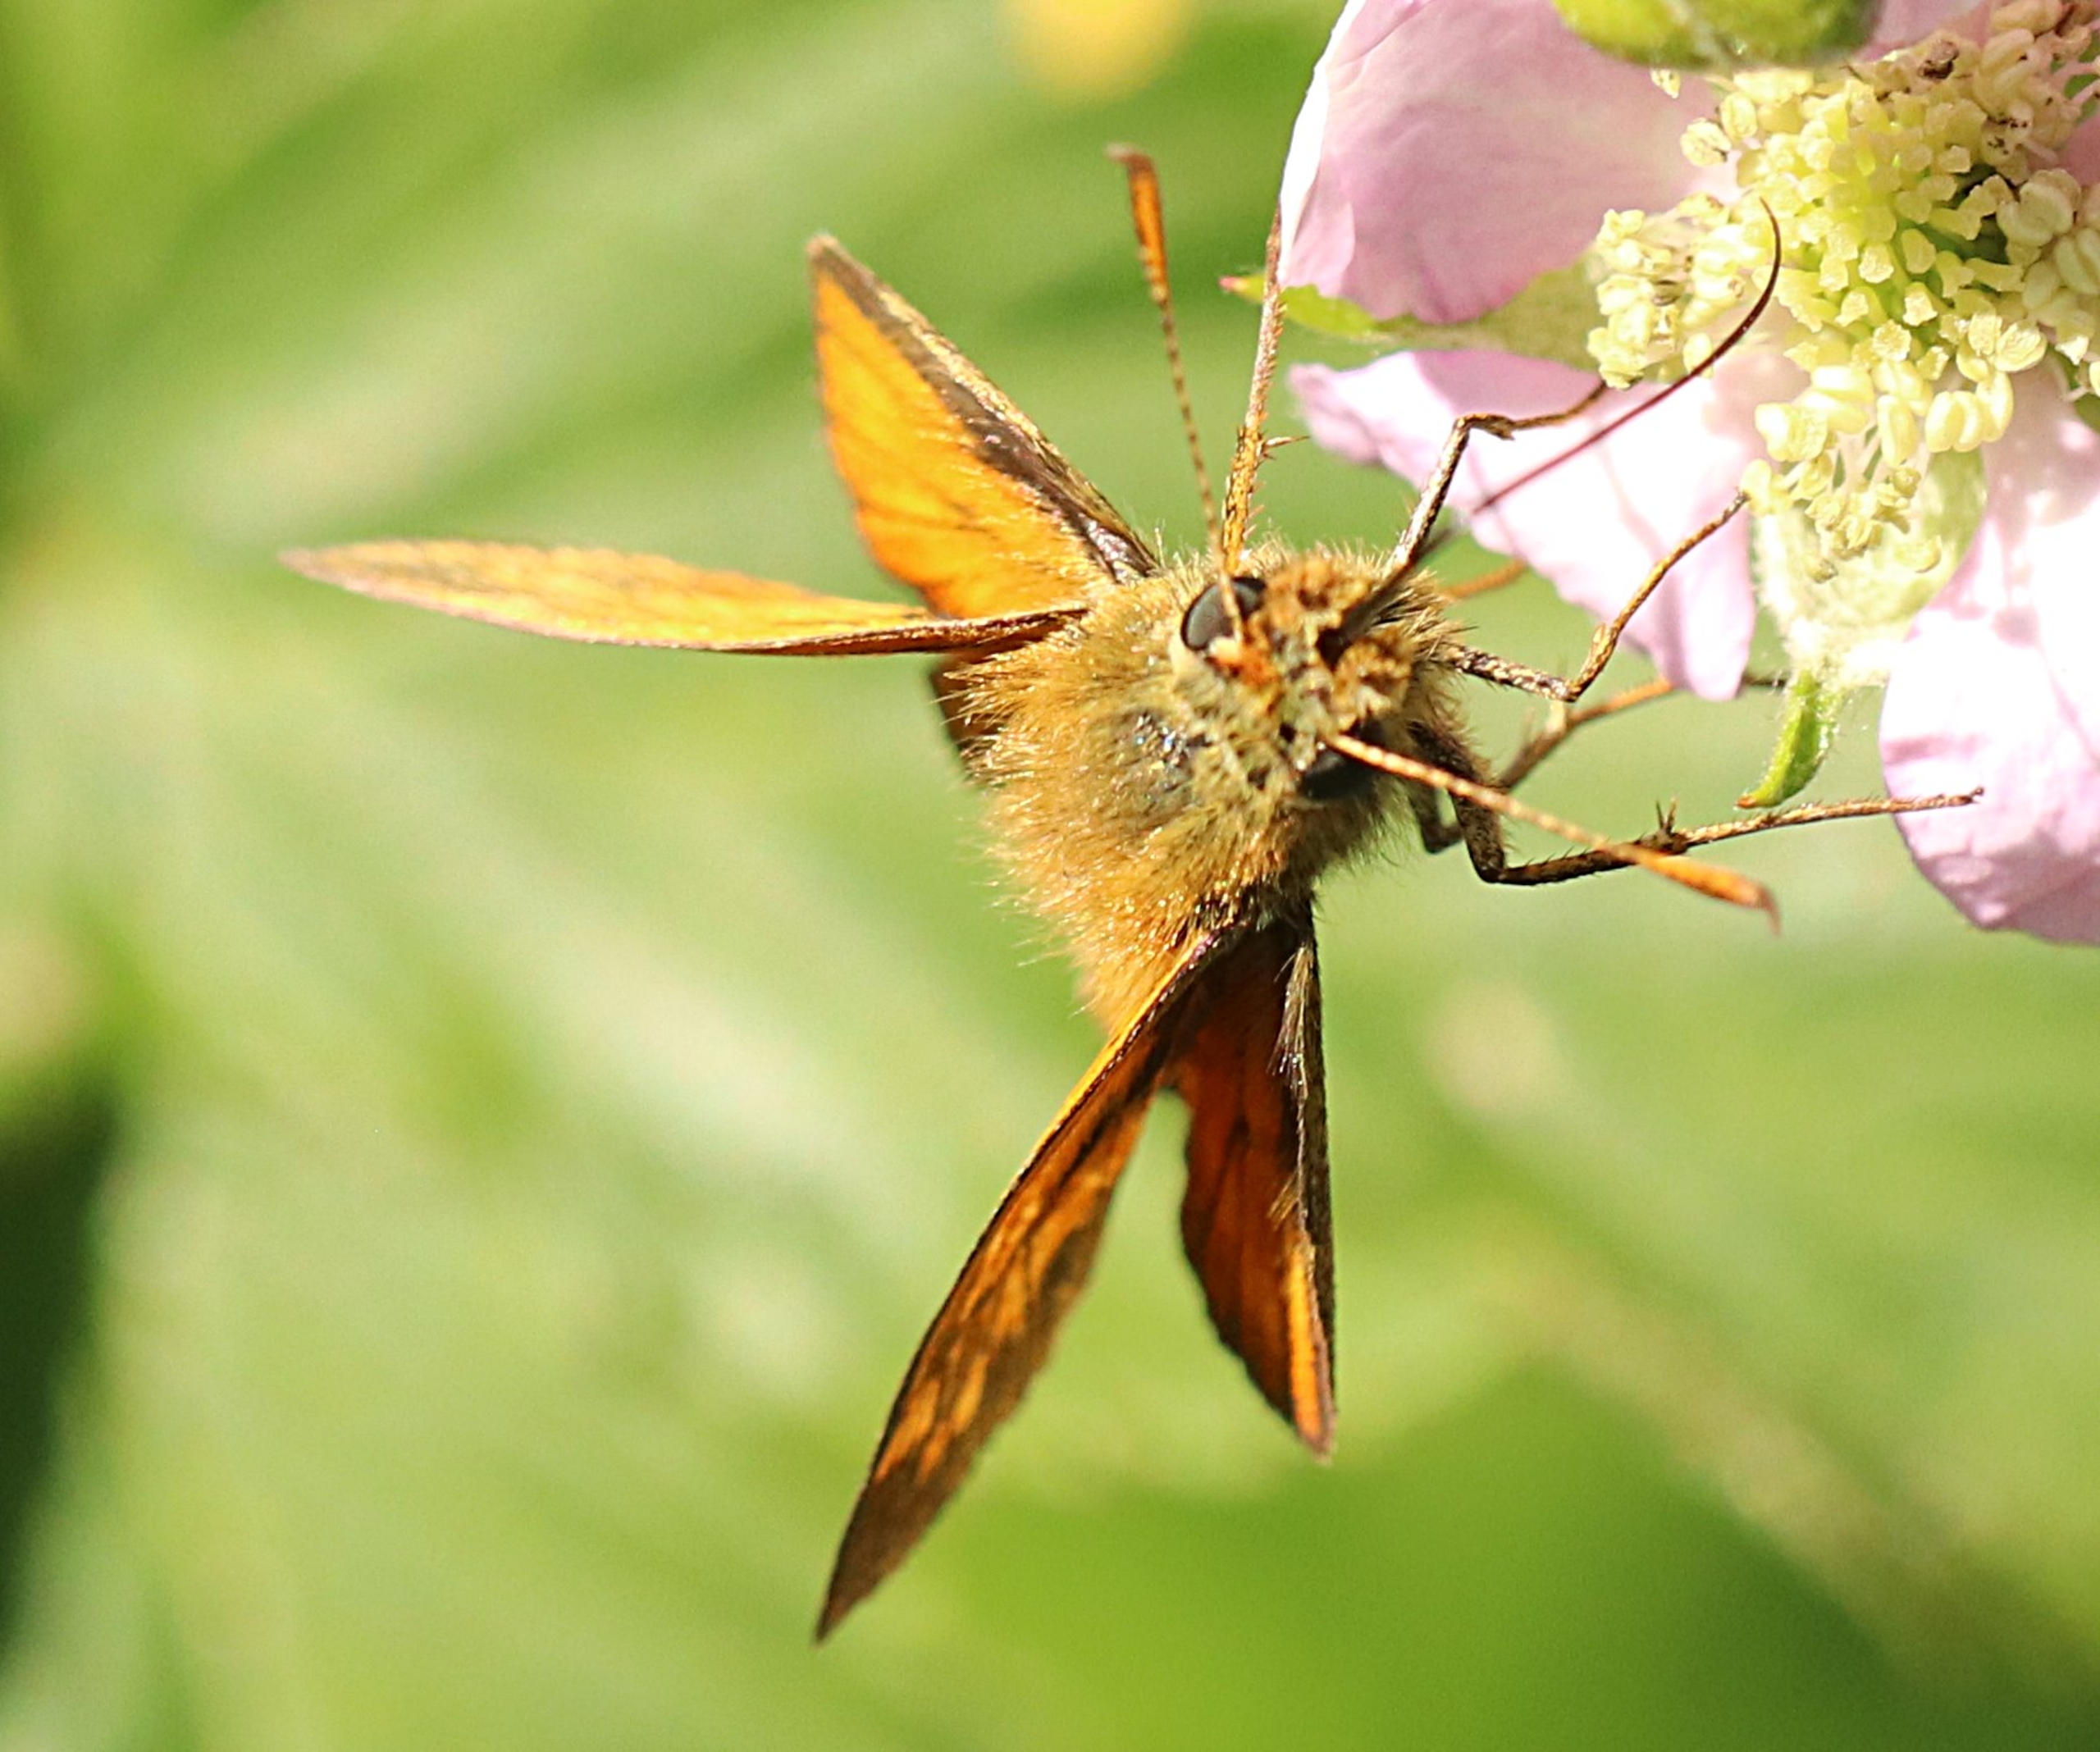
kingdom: Animalia
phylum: Arthropoda
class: Insecta
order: Lepidoptera
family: Hesperiidae
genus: Ochlodes
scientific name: Ochlodes venata
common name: Stor bredpande
